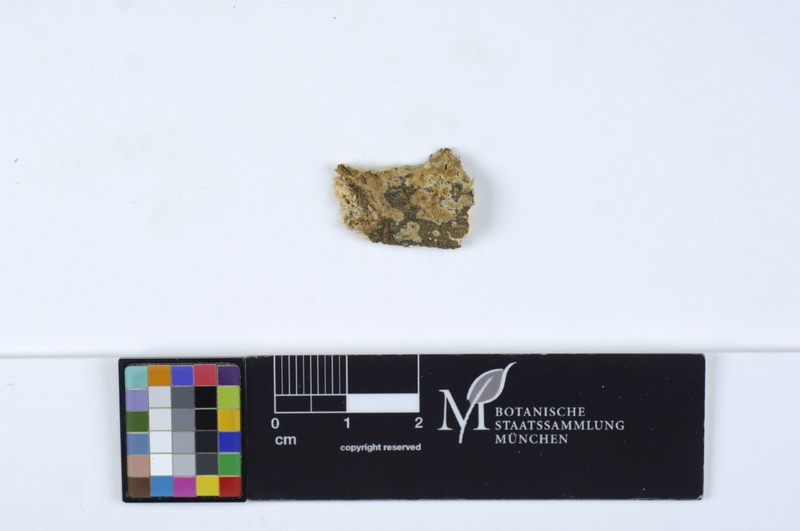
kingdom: Fungi
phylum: Basidiomycota
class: Agaricomycetes
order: Russulales
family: Stereaceae
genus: Megalocystidium
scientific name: Megalocystidium leucoxanthum
